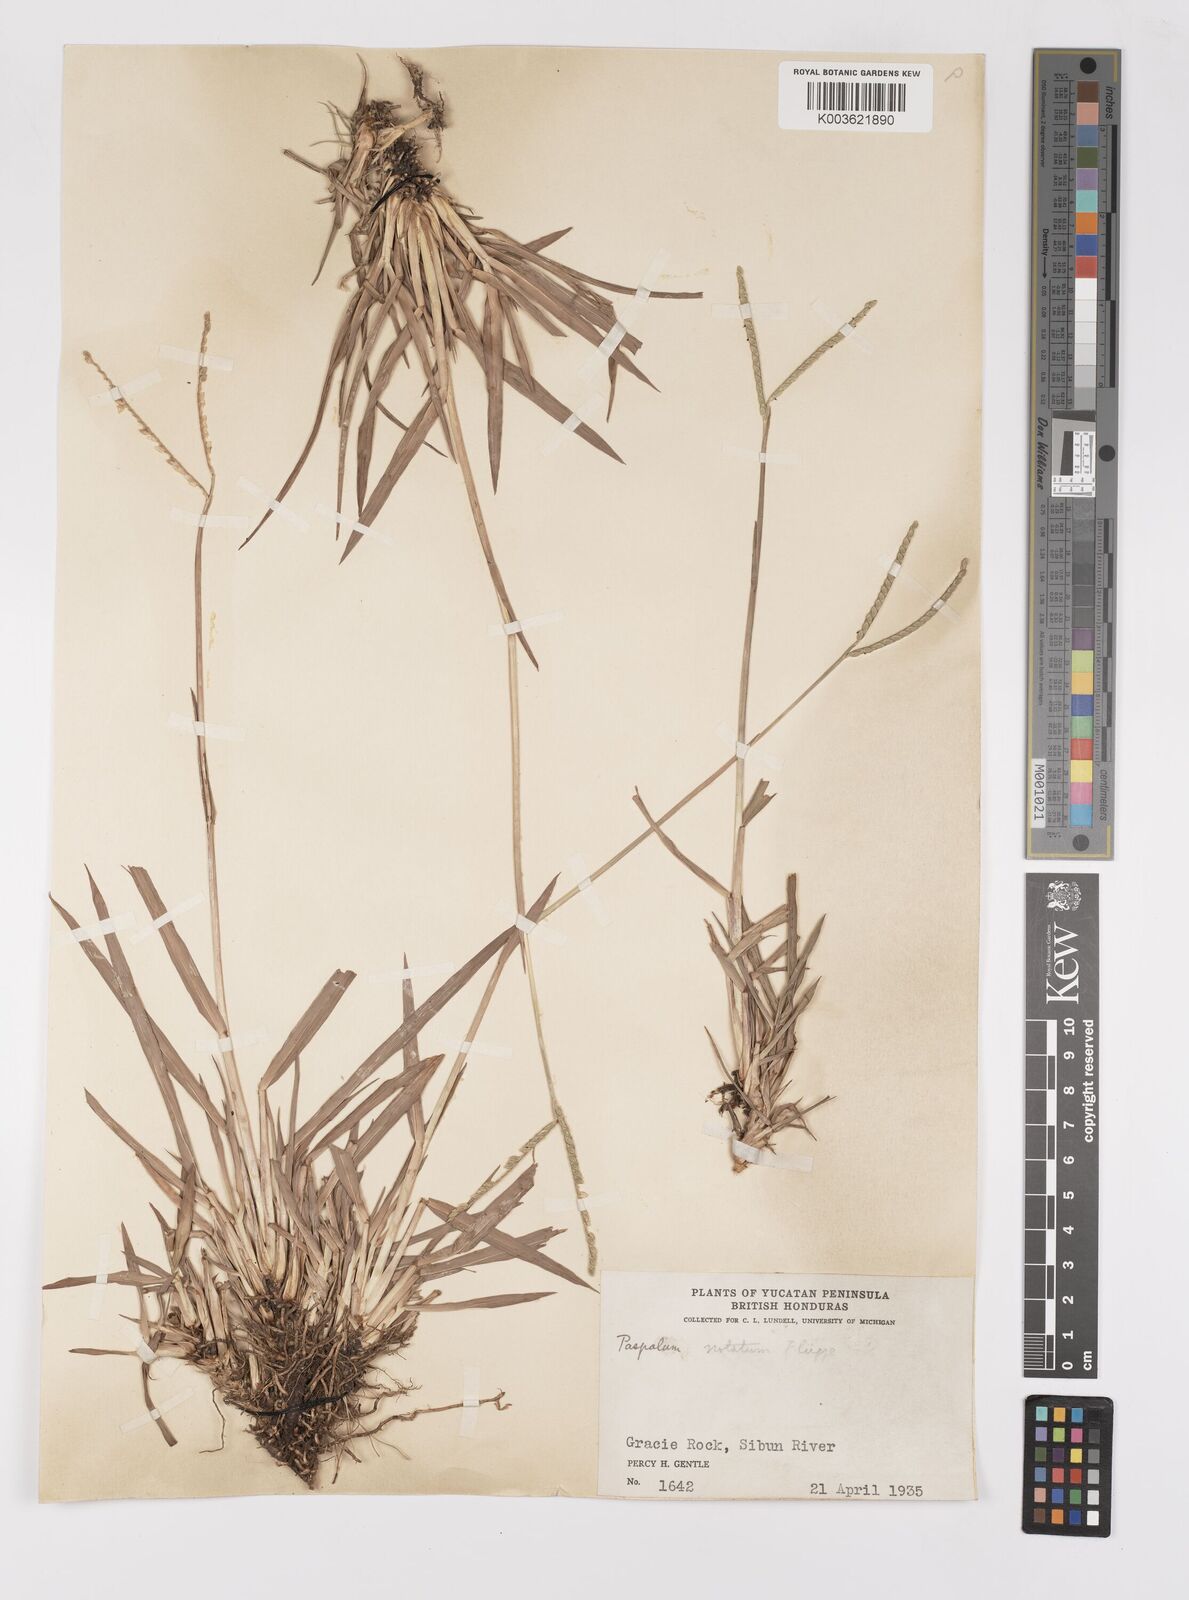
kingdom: Plantae
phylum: Tracheophyta
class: Liliopsida
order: Poales
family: Poaceae
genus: Paspalum
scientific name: Paspalum minus
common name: Matted paspalum
